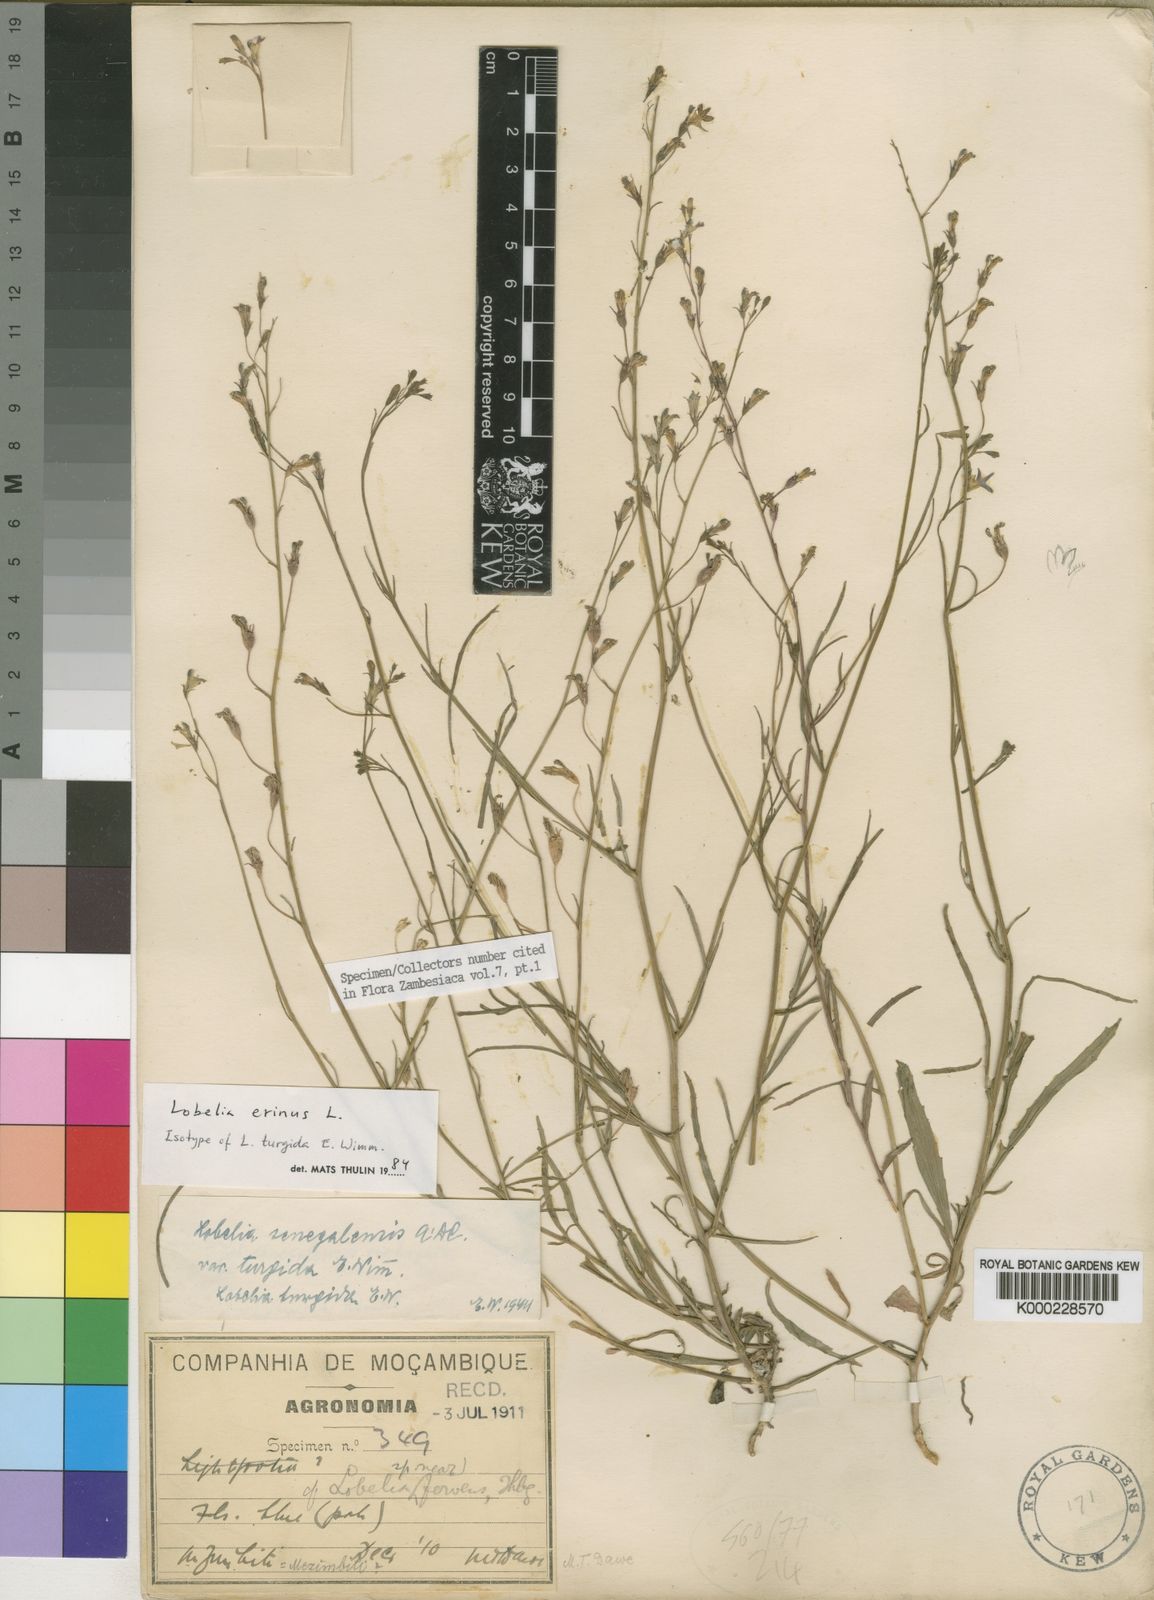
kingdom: Plantae
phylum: Tracheophyta
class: Magnoliopsida
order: Asterales
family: Campanulaceae
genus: Lobelia
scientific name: Lobelia erinus
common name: Edging lobelia
